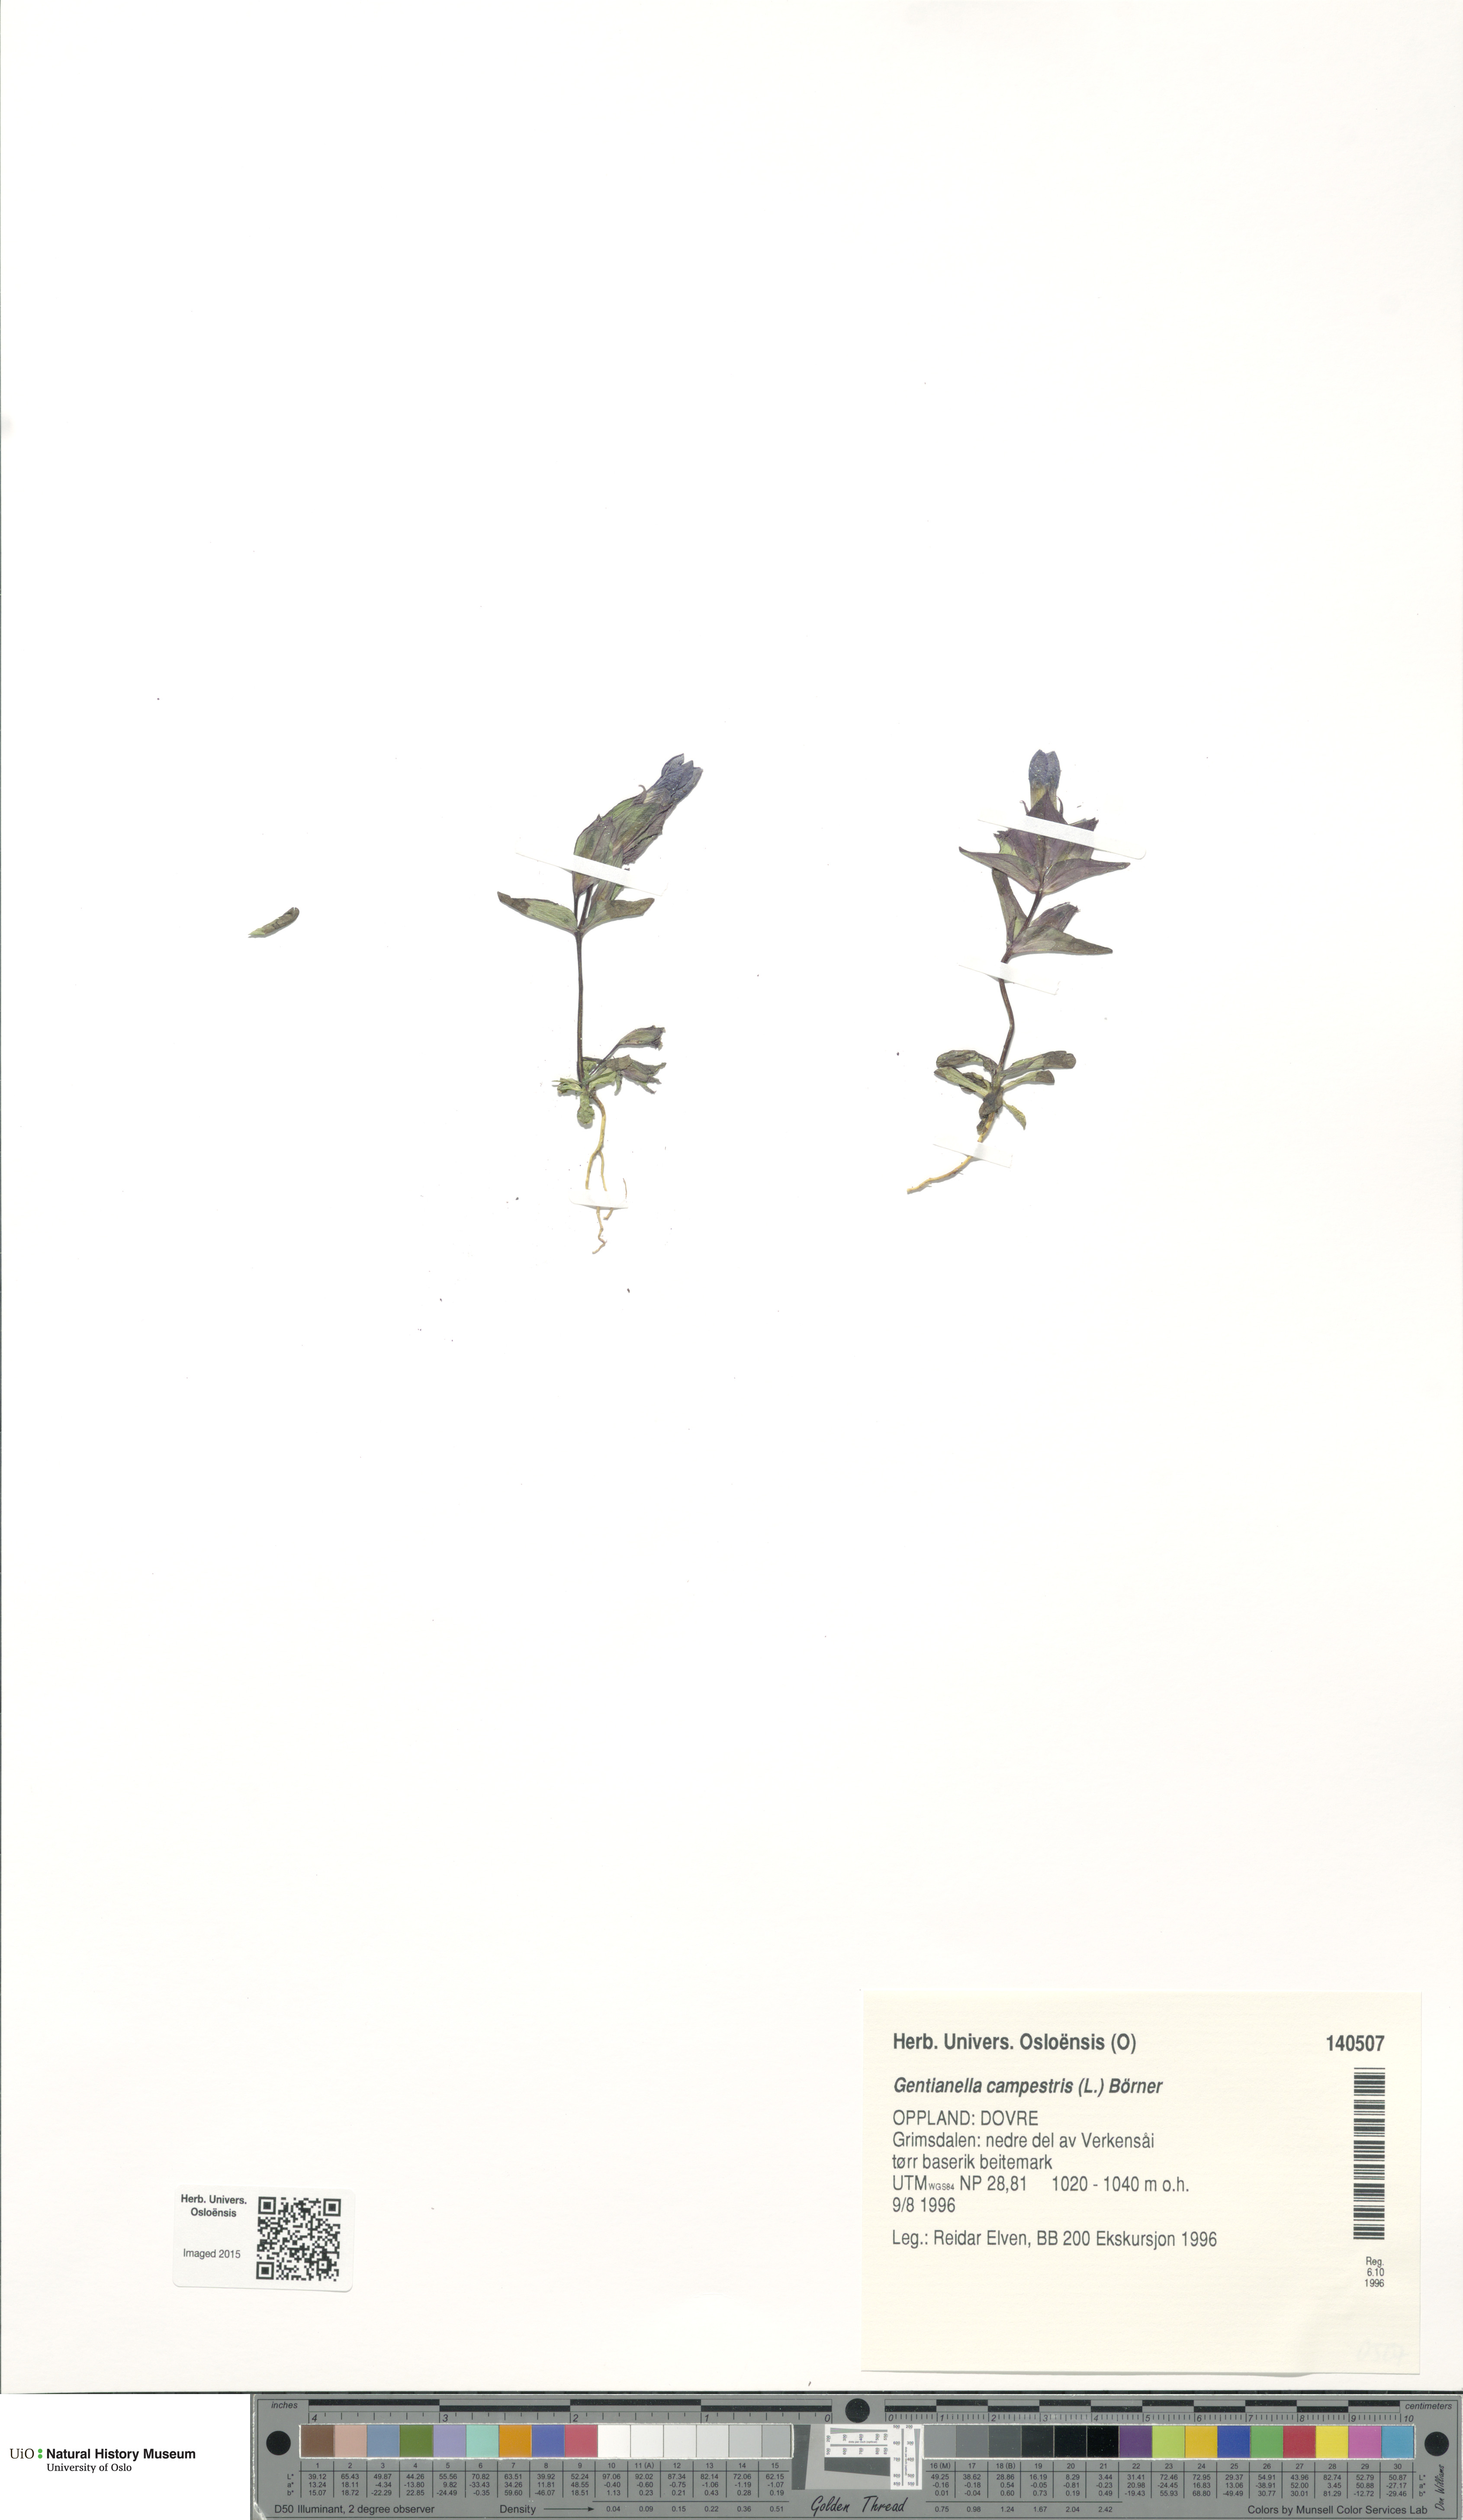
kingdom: Plantae
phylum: Tracheophyta
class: Magnoliopsida
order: Gentianales
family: Gentianaceae
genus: Gentianella
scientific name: Gentianella campestris
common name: Field gentian
